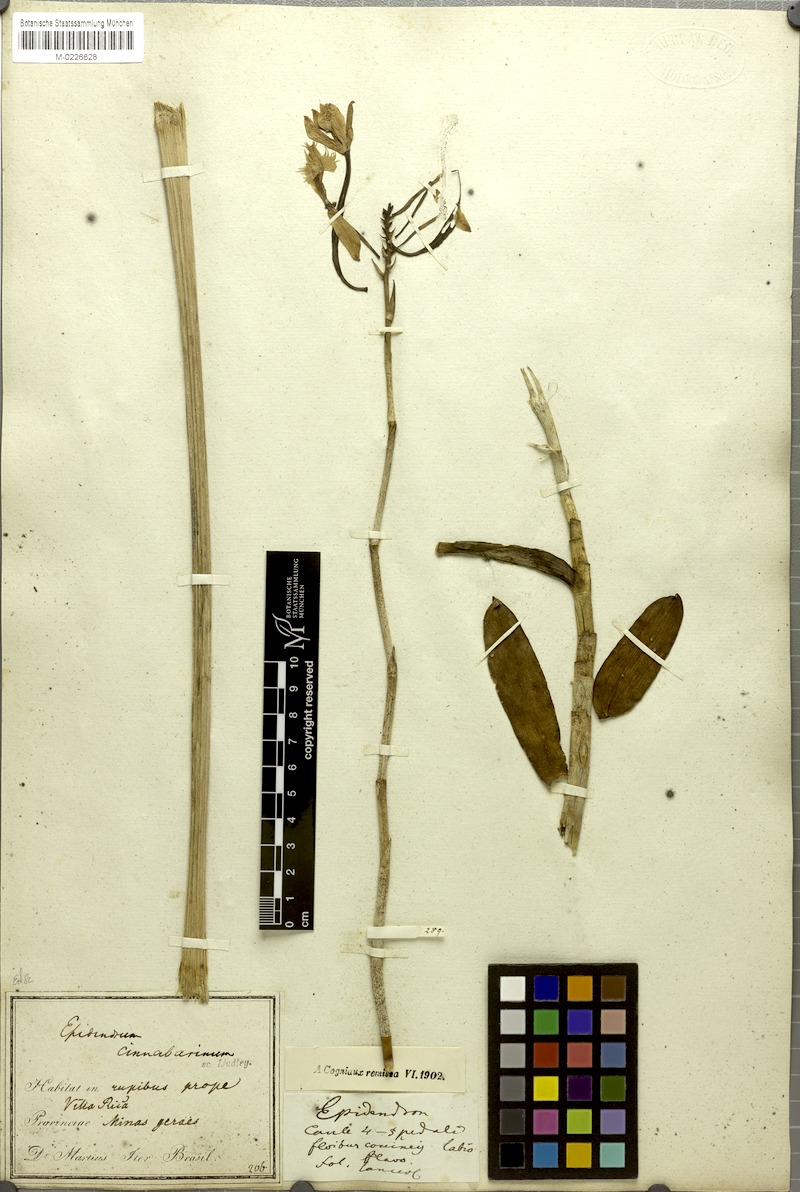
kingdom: Plantae
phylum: Tracheophyta
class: Liliopsida
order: Asparagales
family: Orchidaceae
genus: Epidendrum
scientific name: Epidendrum cinnabarinum
